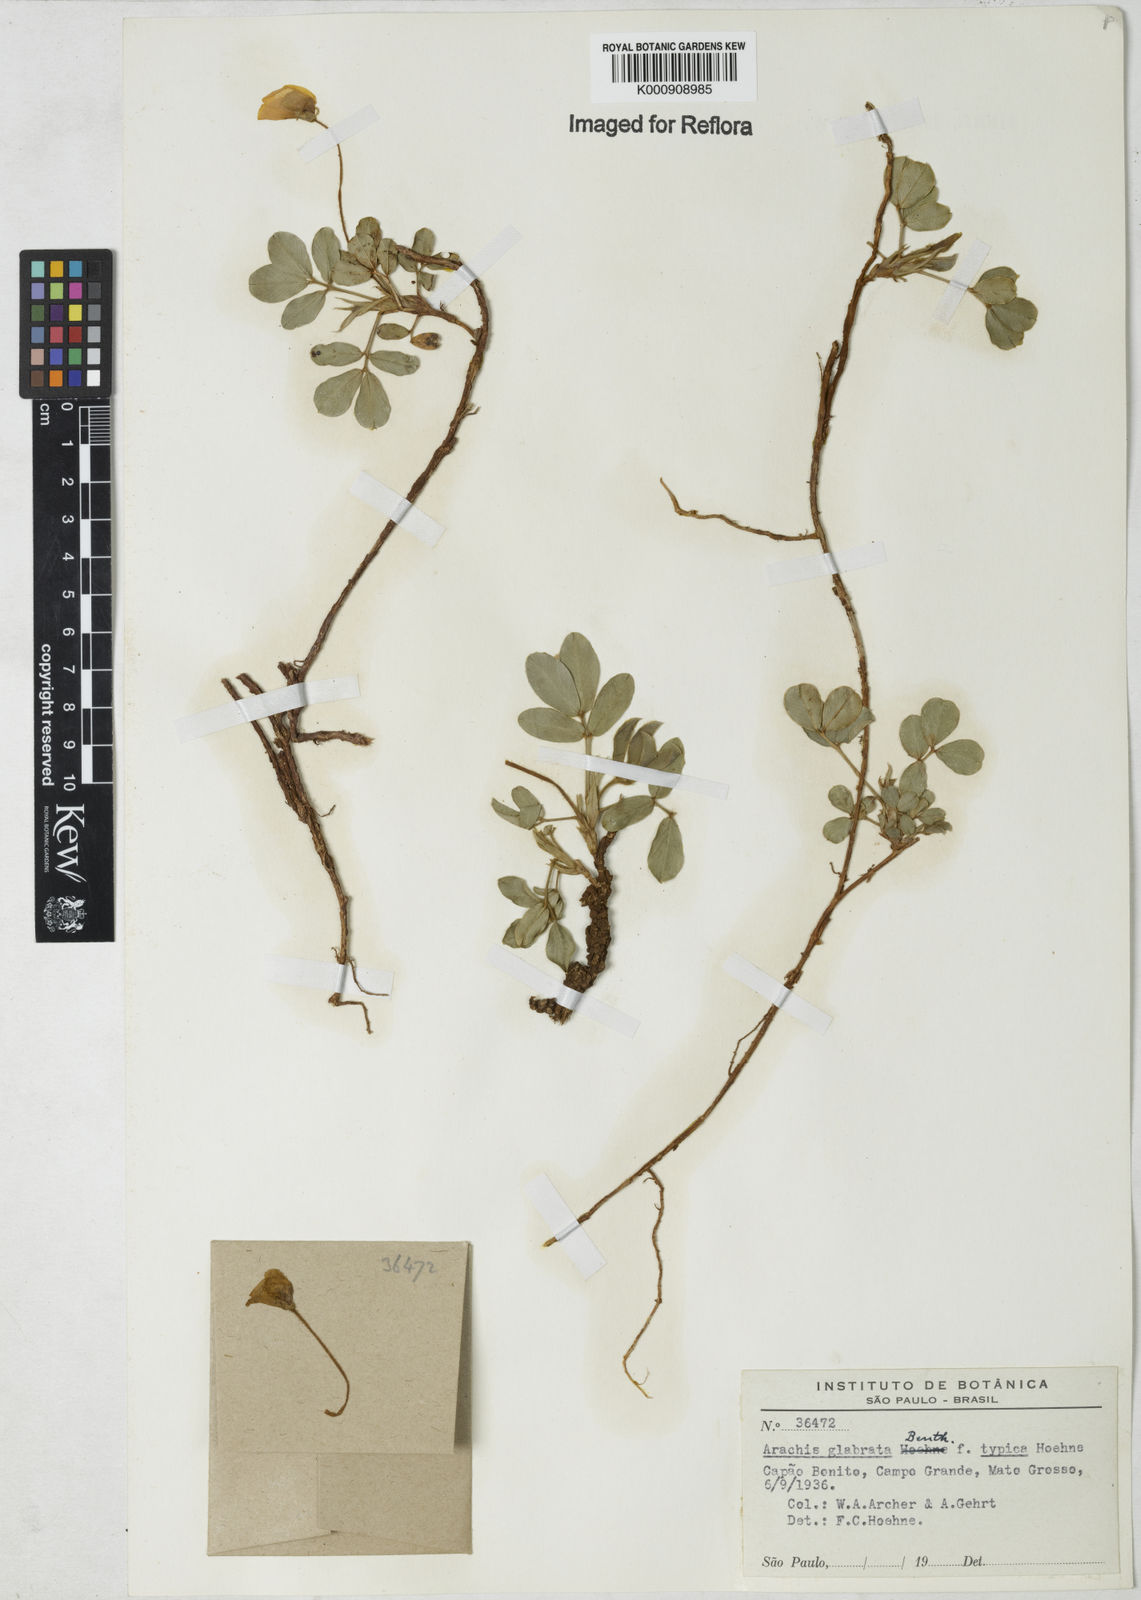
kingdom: Plantae
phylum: Tracheophyta
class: Magnoliopsida
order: Fabales
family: Fabaceae
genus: Arachis
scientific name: Arachis glabrata
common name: Rhizoma peanut
